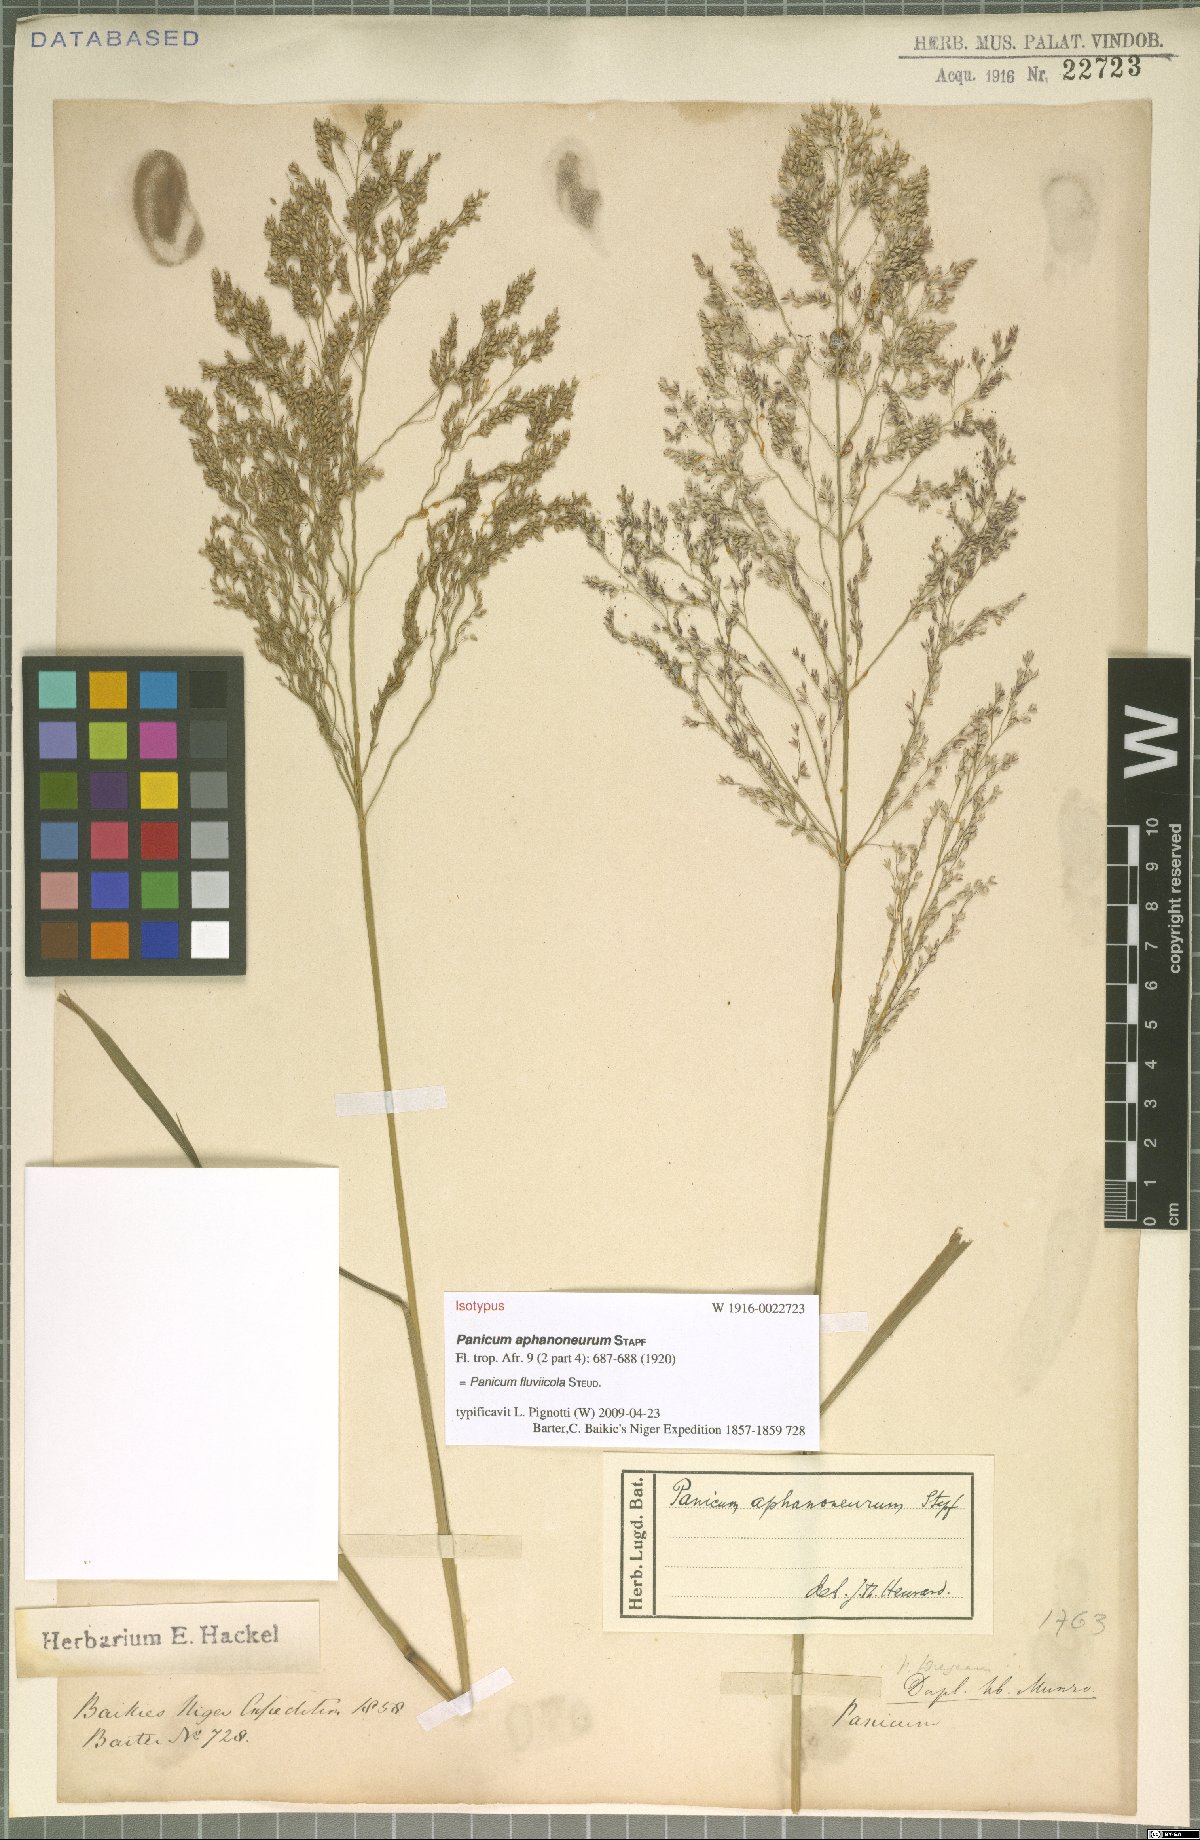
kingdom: Plantae
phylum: Tracheophyta
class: Liliopsida
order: Poales
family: Poaceae
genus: Panicum
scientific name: Panicum fluviicola
